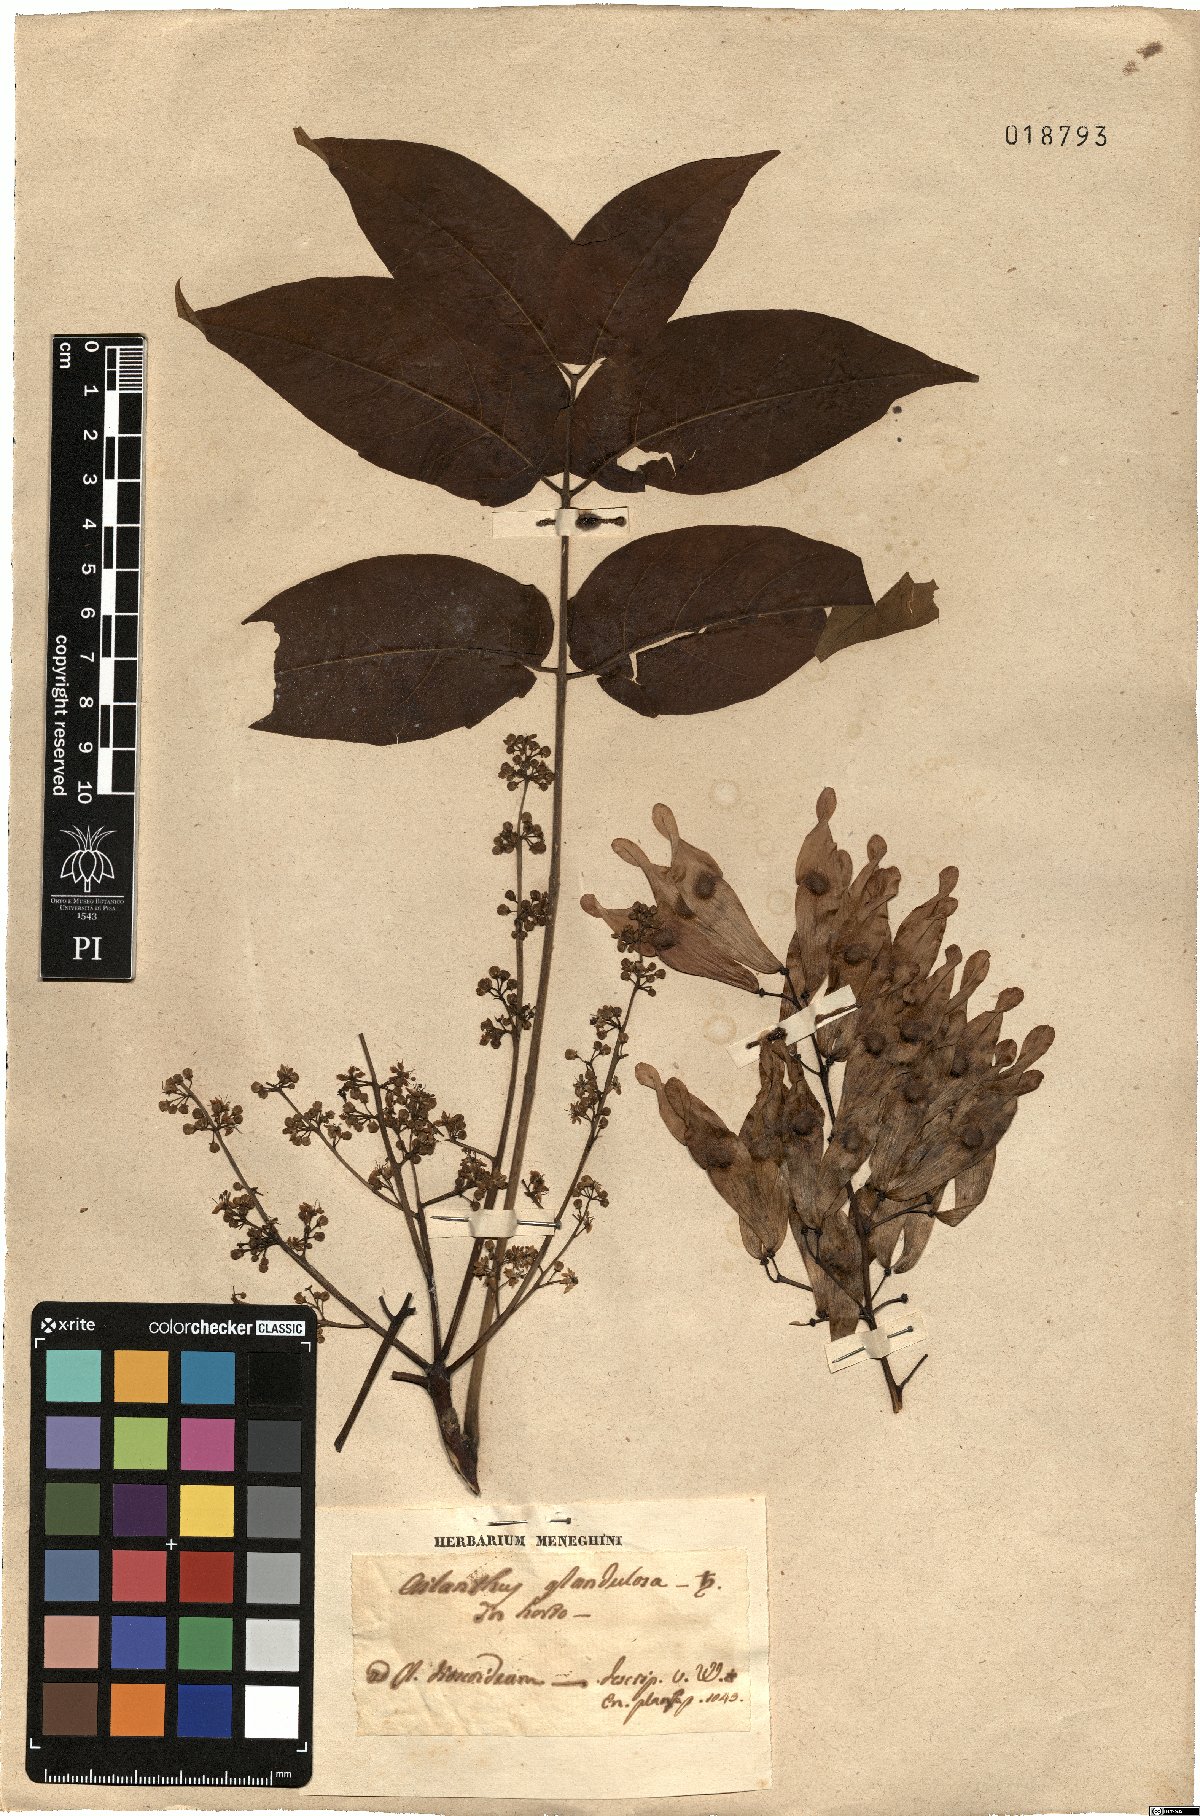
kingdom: Plantae
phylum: Tracheophyta
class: Magnoliopsida
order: Sapindales
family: Simaroubaceae
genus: Ailanthus
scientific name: Ailanthus altissima
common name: Tree-of-heaven
